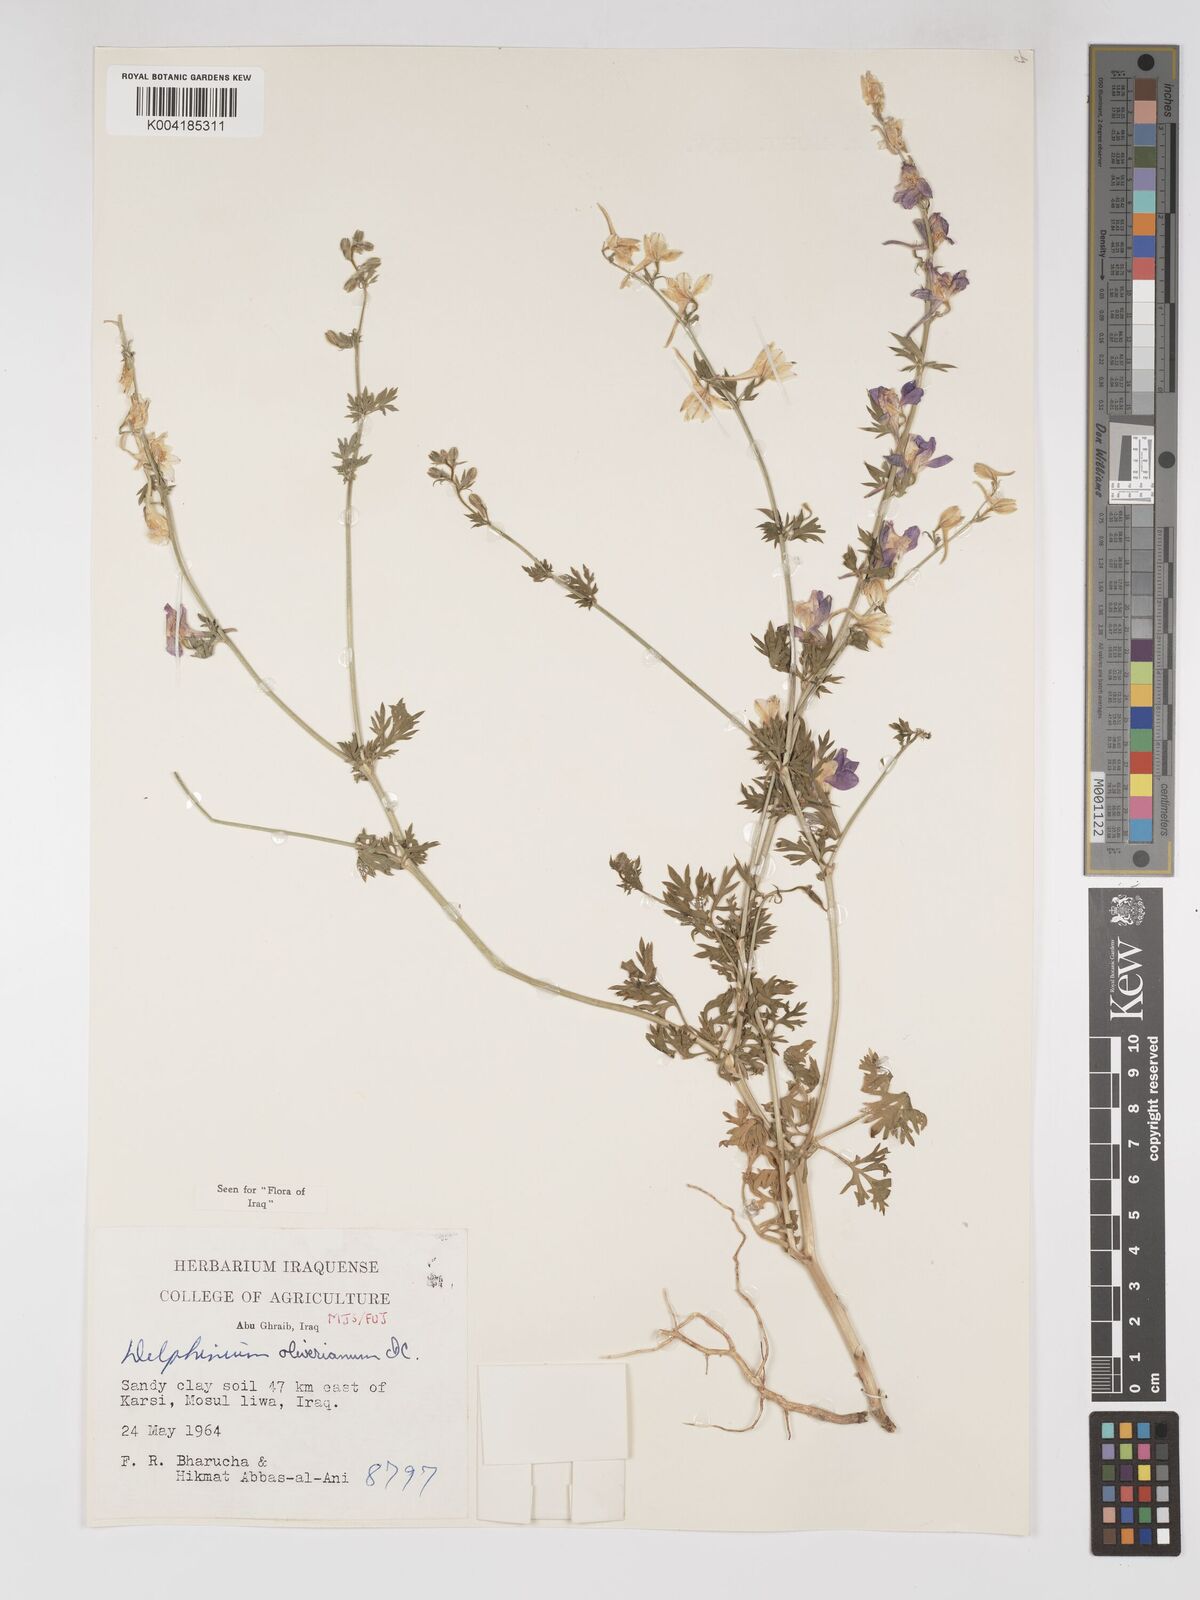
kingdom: Plantae
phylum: Tracheophyta
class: Magnoliopsida
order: Ranunculales
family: Ranunculaceae
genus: Delphinium
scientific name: Delphinium oliverianum
